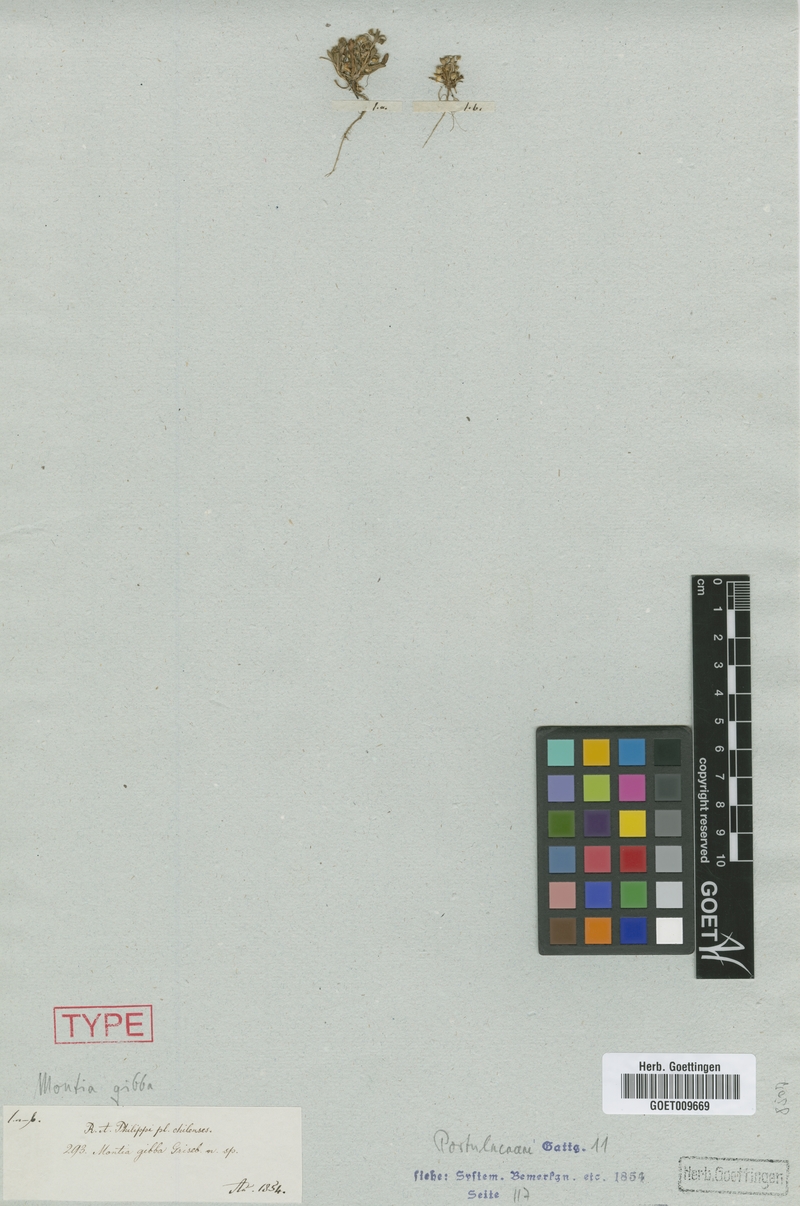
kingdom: Plantae
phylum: Tracheophyta
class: Magnoliopsida
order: Caryophyllales
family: Montiaceae
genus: Calandrinia
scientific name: Calandrinia nitida
